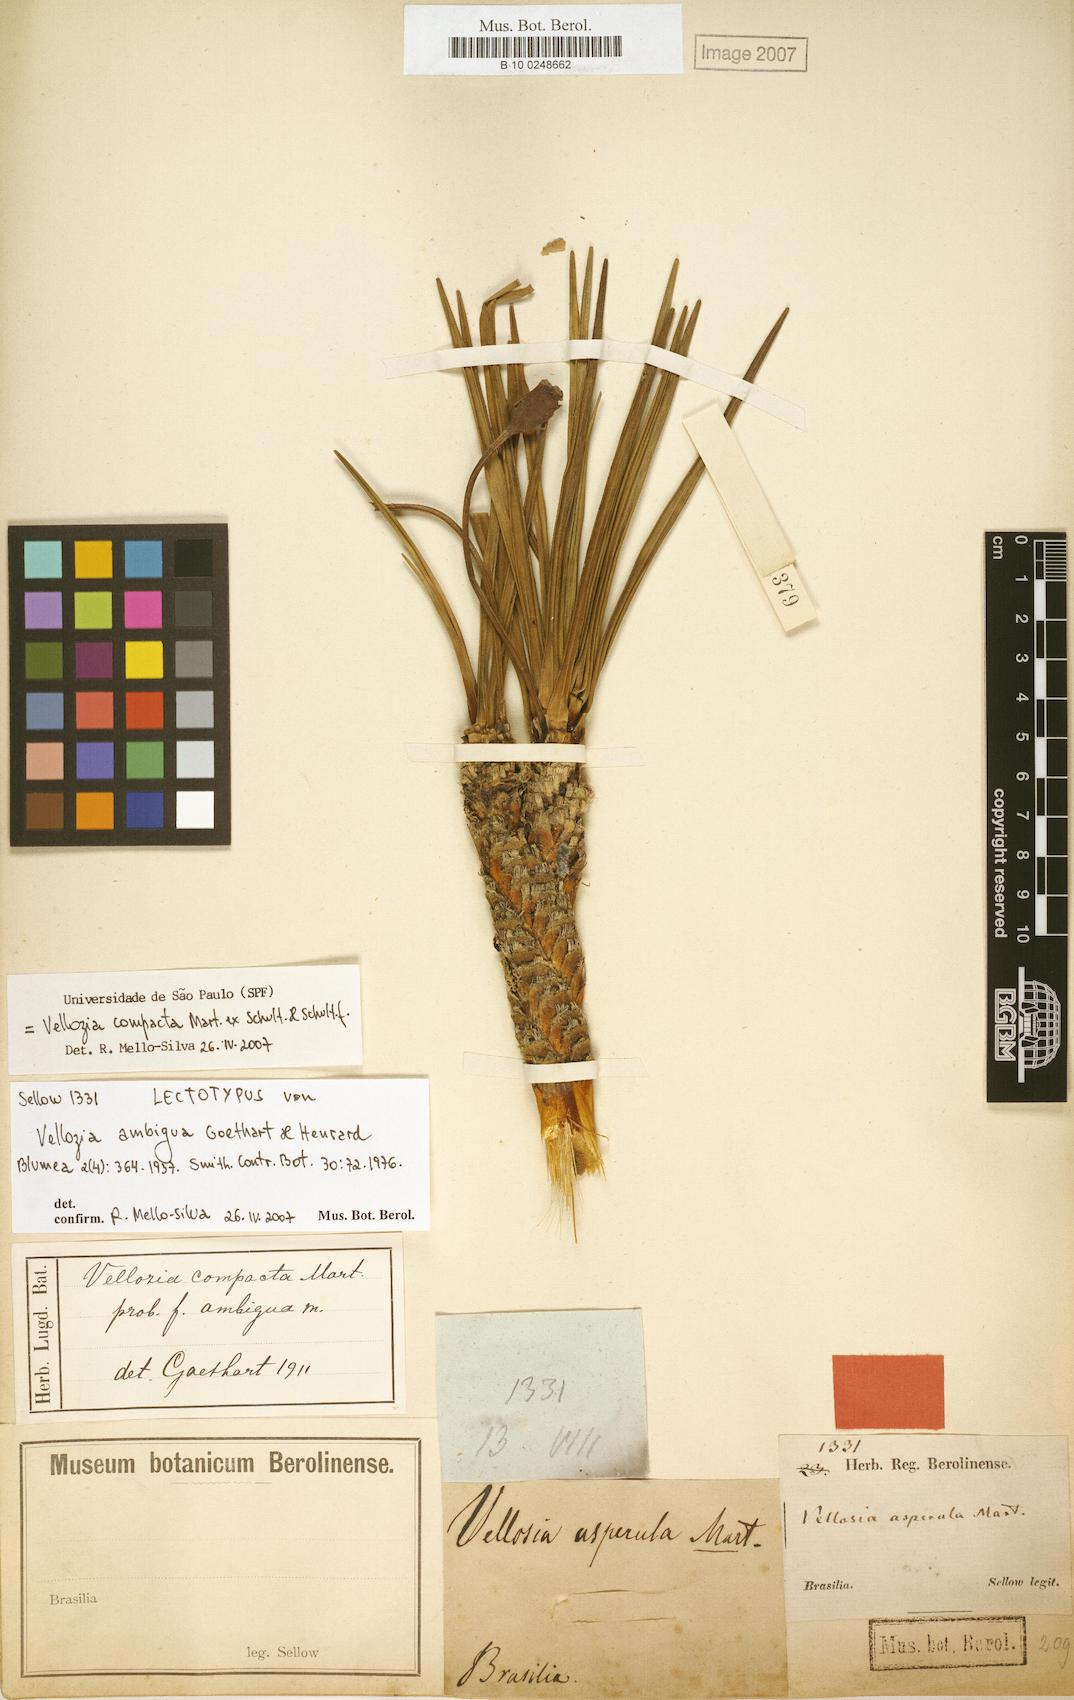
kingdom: Plantae
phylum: Tracheophyta
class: Liliopsida
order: Pandanales
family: Velloziaceae
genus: Vellozia
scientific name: Vellozia compacta
